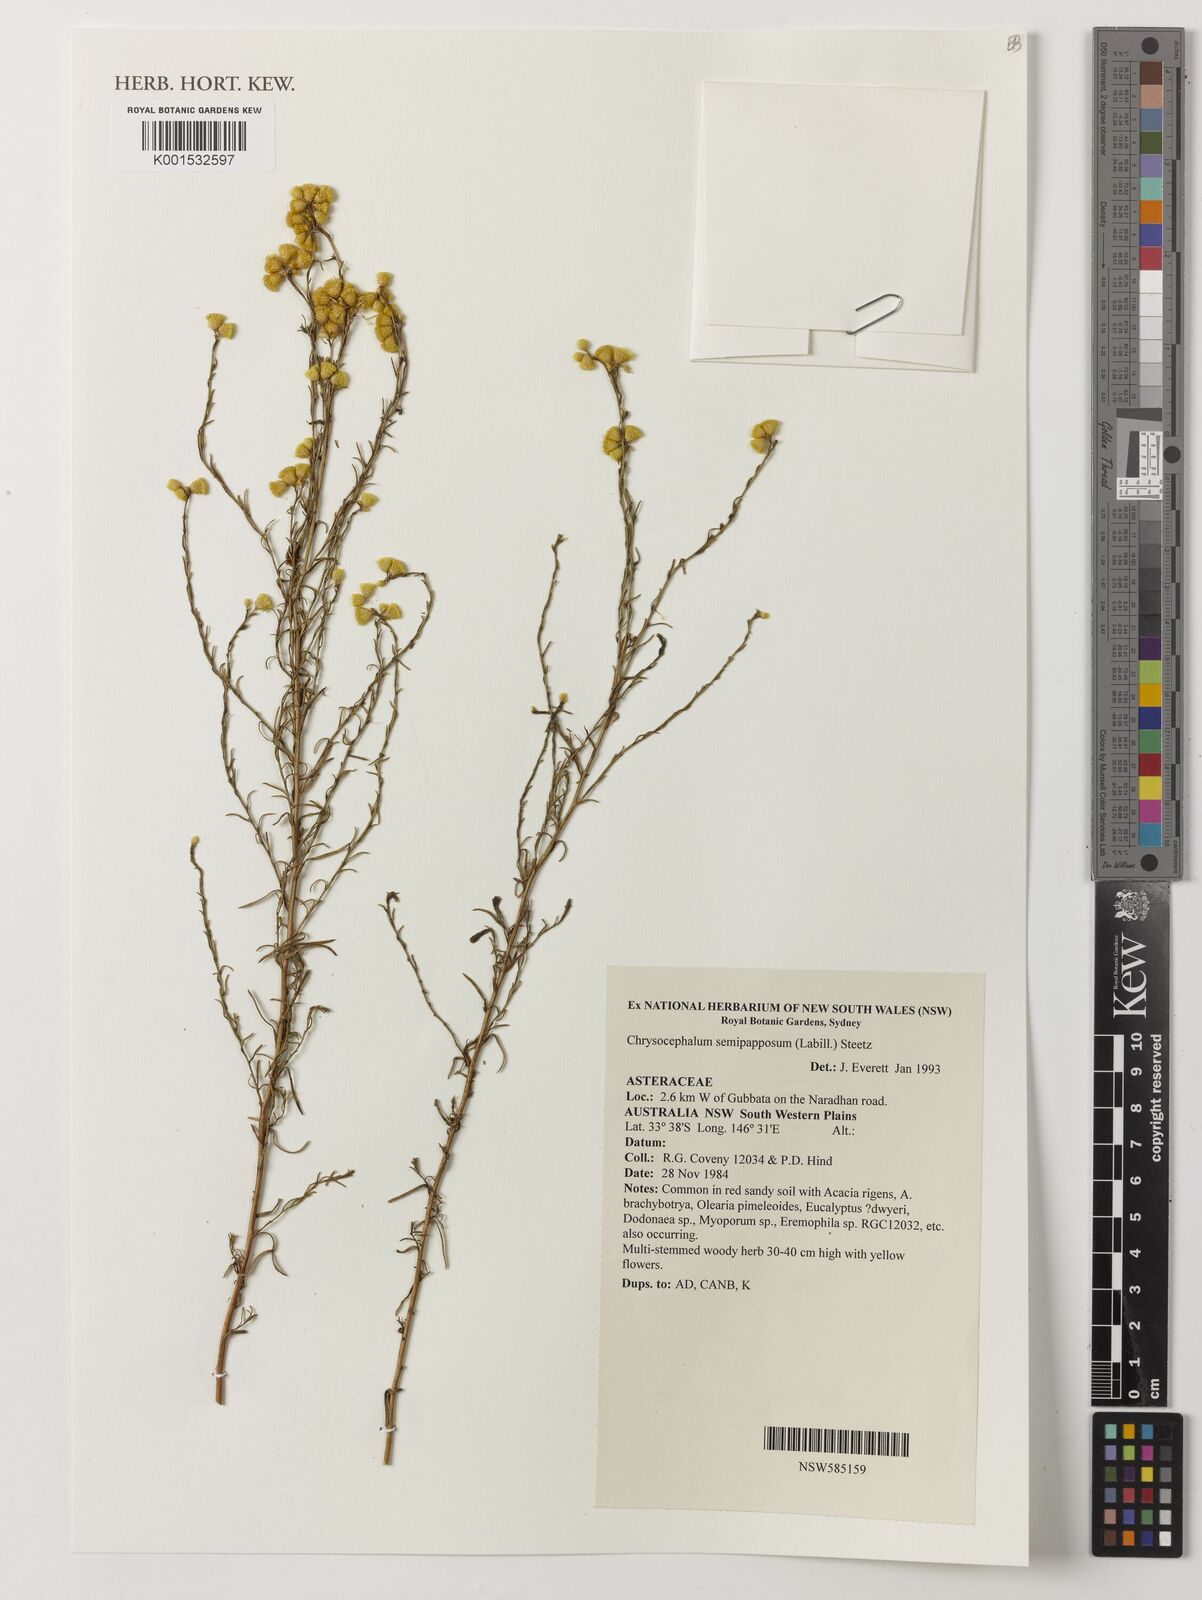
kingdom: Plantae
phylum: Tracheophyta
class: Magnoliopsida
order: Asterales
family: Asteraceae
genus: Chrysocephalum
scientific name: Chrysocephalum semipapposum
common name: Clustered everlasting
